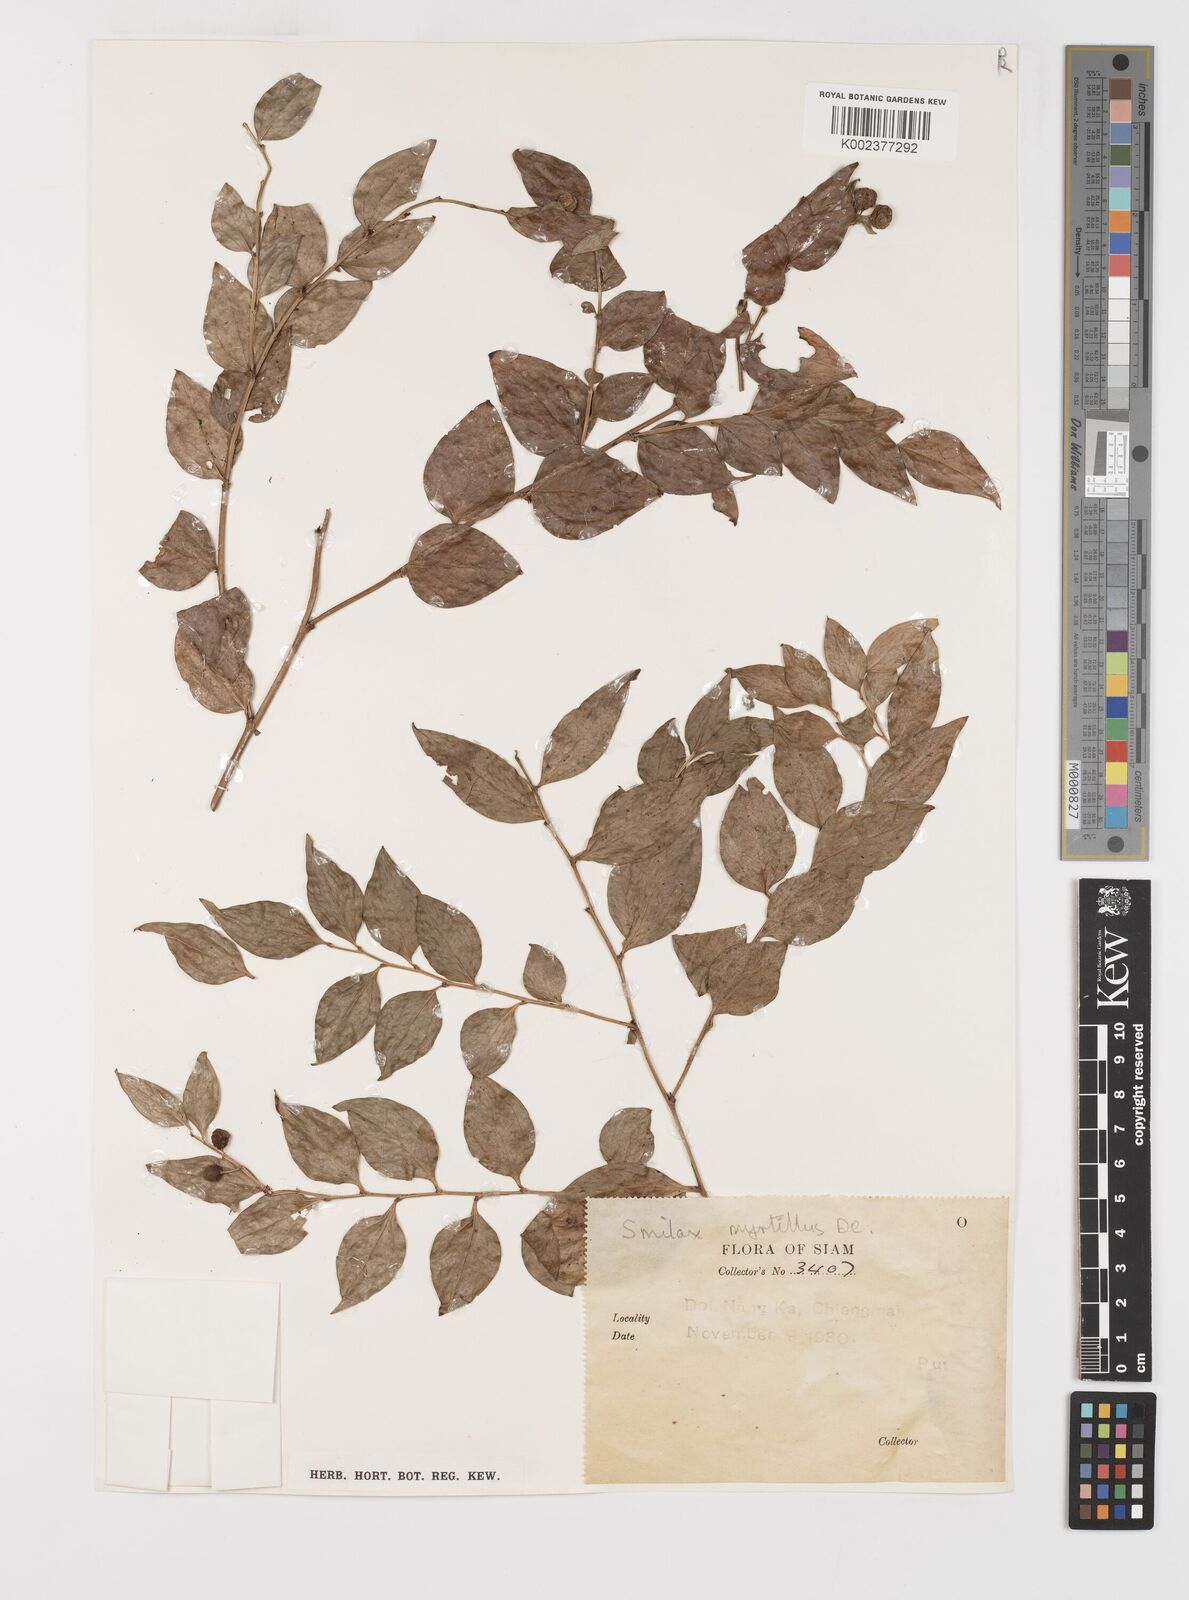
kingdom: Plantae
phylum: Tracheophyta
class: Liliopsida
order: Liliales
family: Smilacaceae
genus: Smilax
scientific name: Smilax myrtillus
